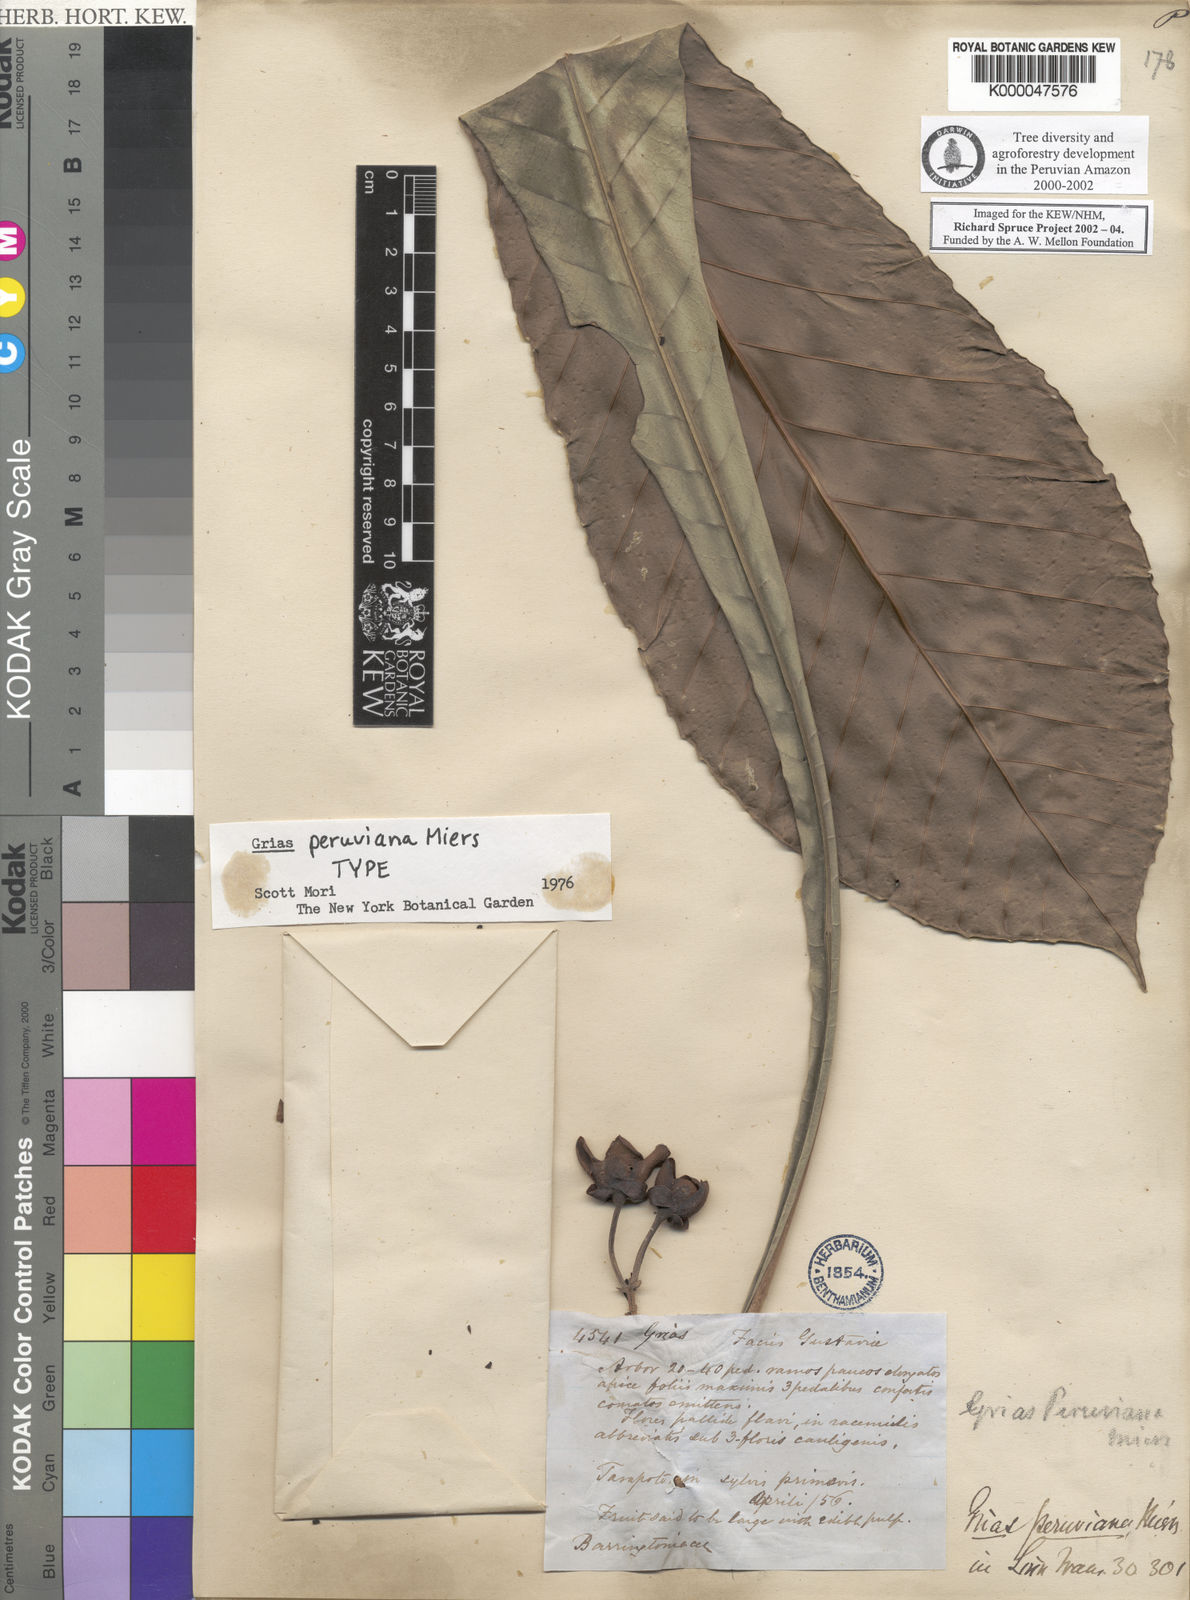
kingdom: Plantae
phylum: Tracheophyta
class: Magnoliopsida
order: Ericales
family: Lecythidaceae
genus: Grias
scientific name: Grias peruviana
